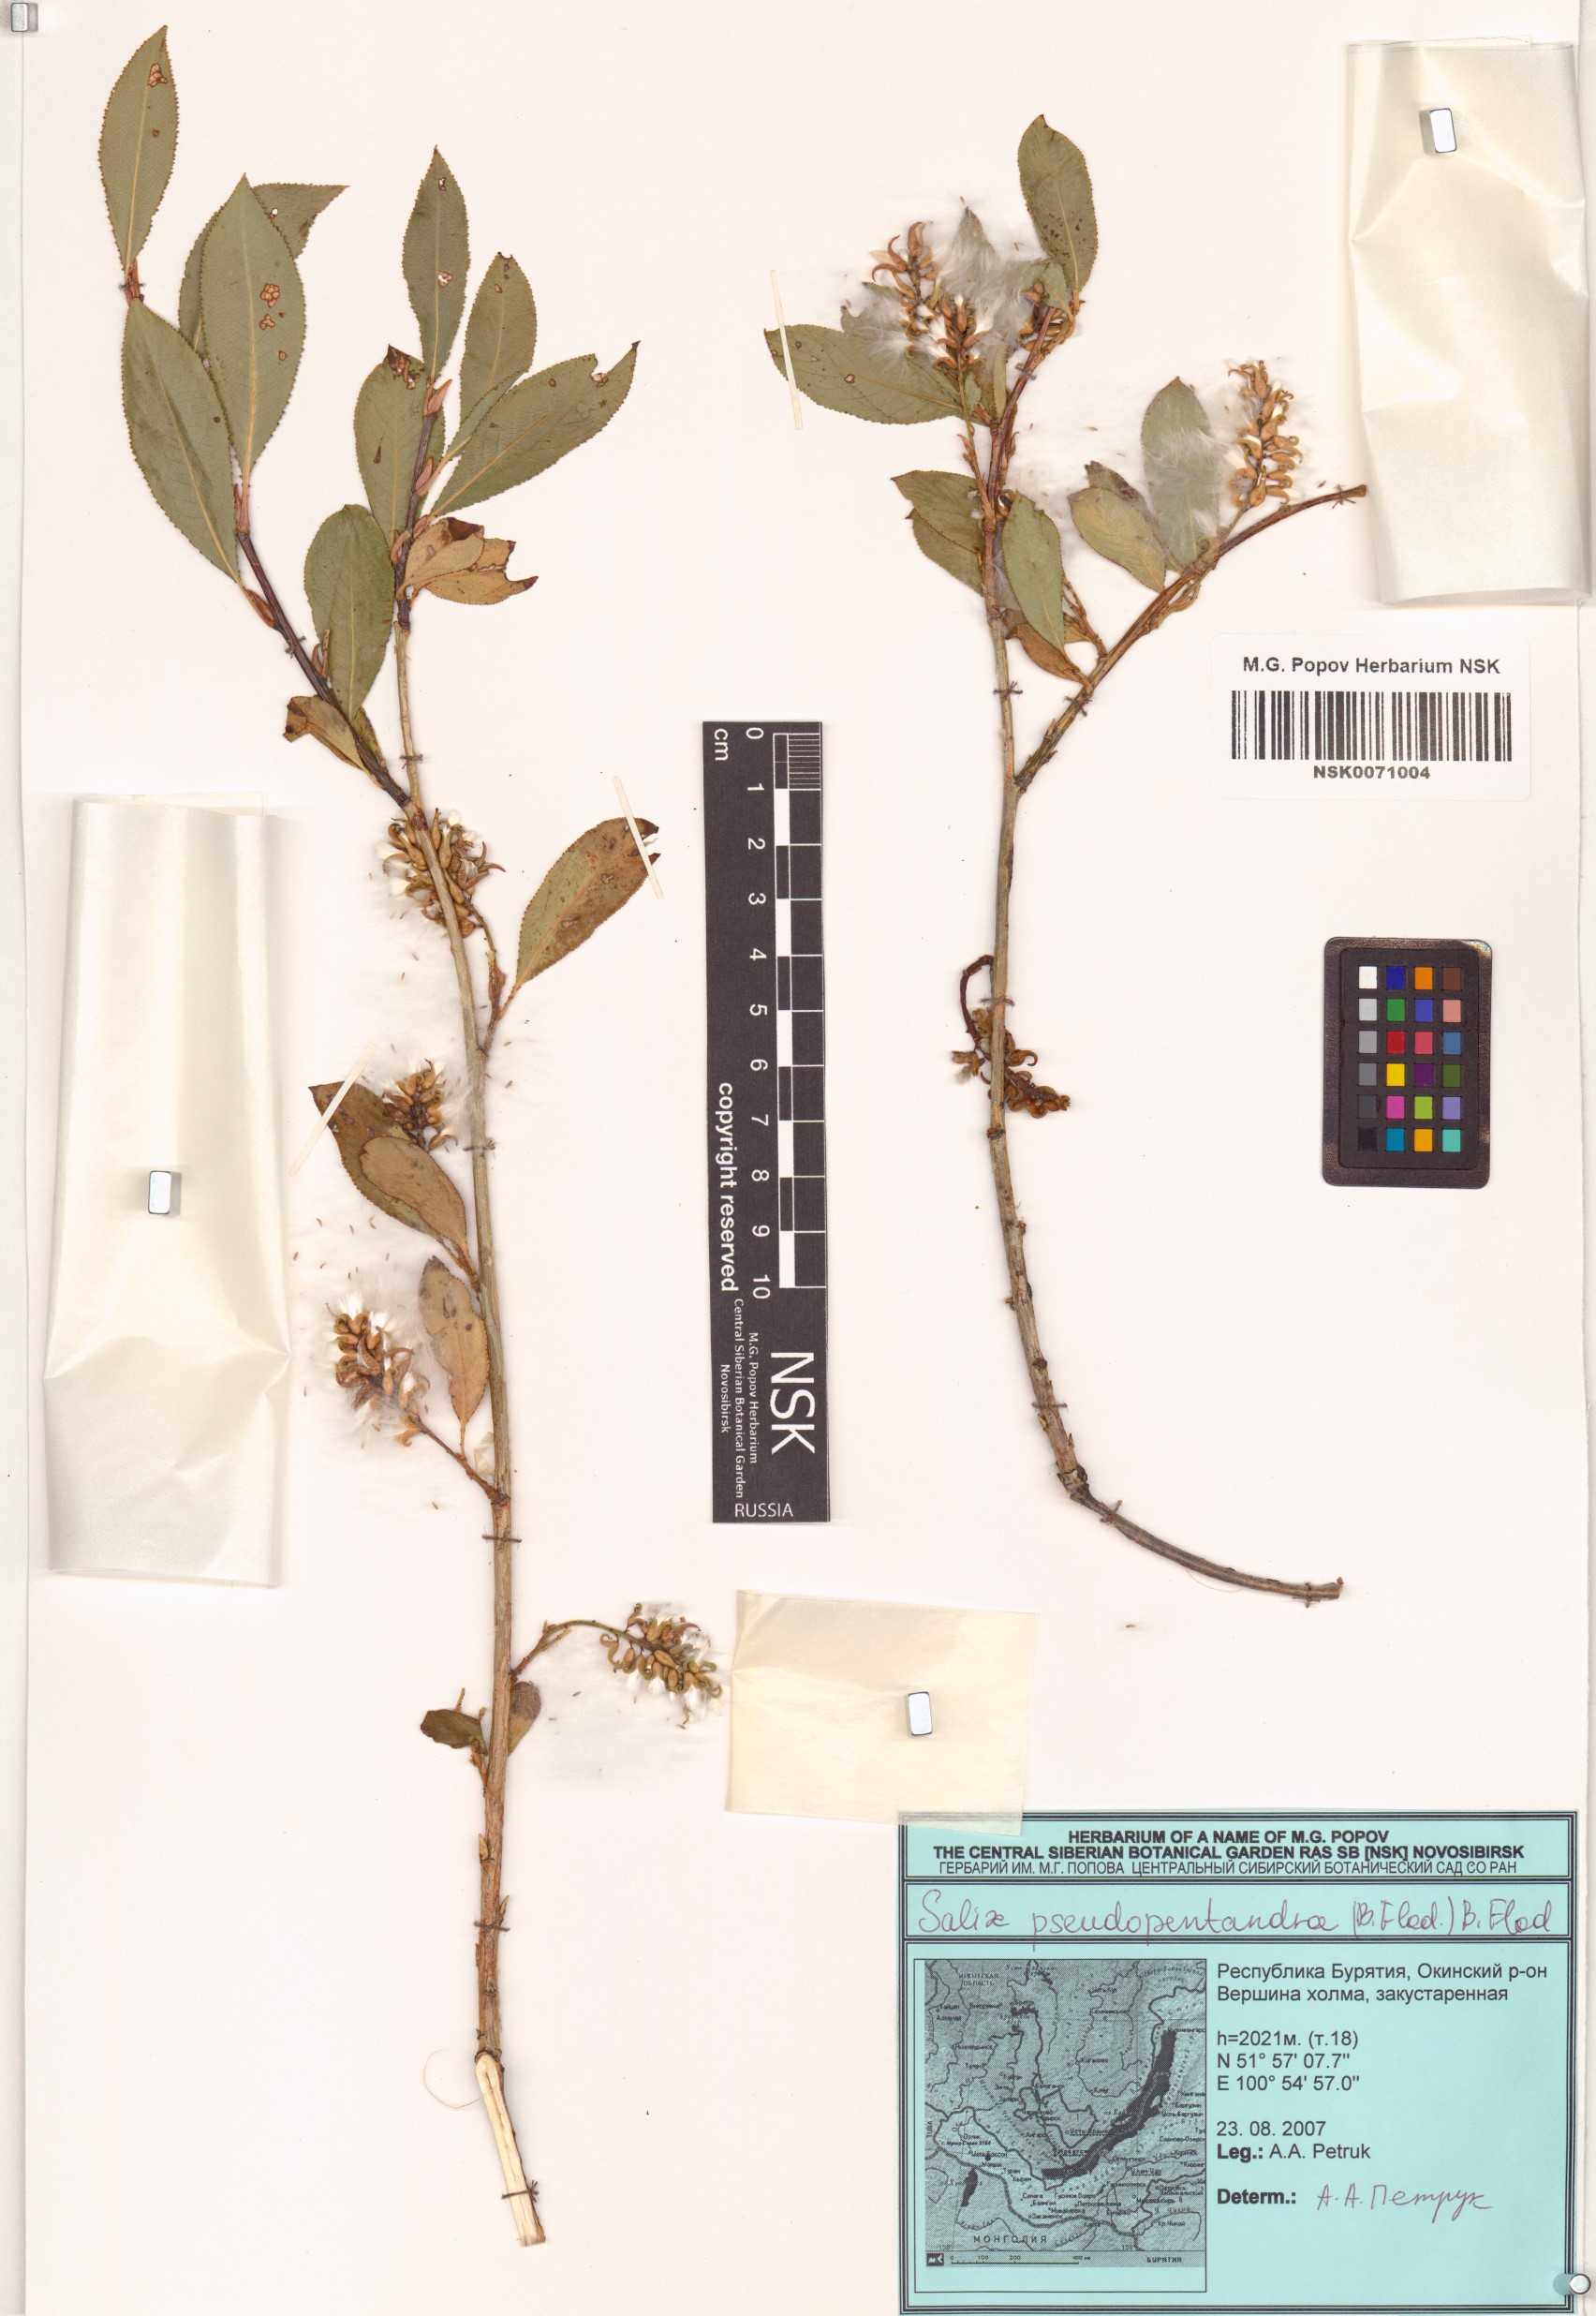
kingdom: Plantae
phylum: Tracheophyta
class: Magnoliopsida
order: Malpighiales
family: Salicaceae
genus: Salix
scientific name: Salix pseudopentandra
